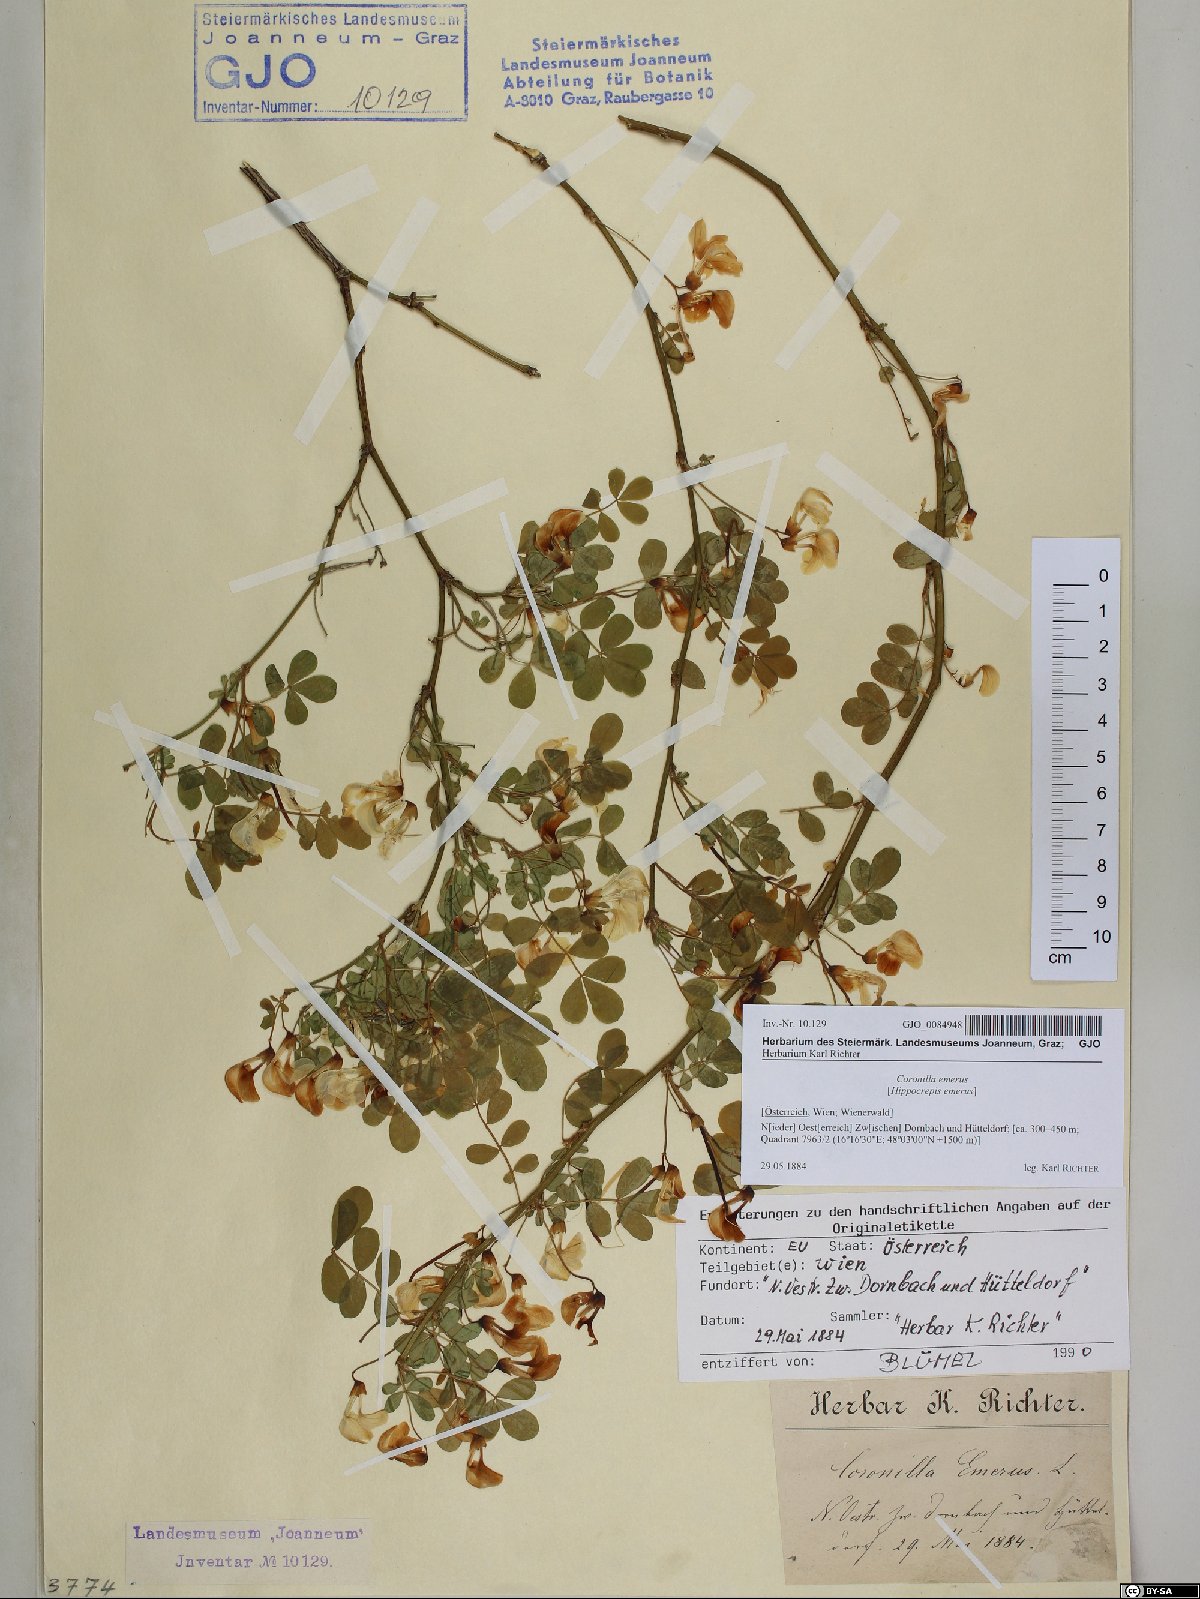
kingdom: Plantae
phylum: Tracheophyta
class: Magnoliopsida
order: Fabales
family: Fabaceae
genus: Hippocrepis
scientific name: Hippocrepis emerus
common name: Scorpion senna
